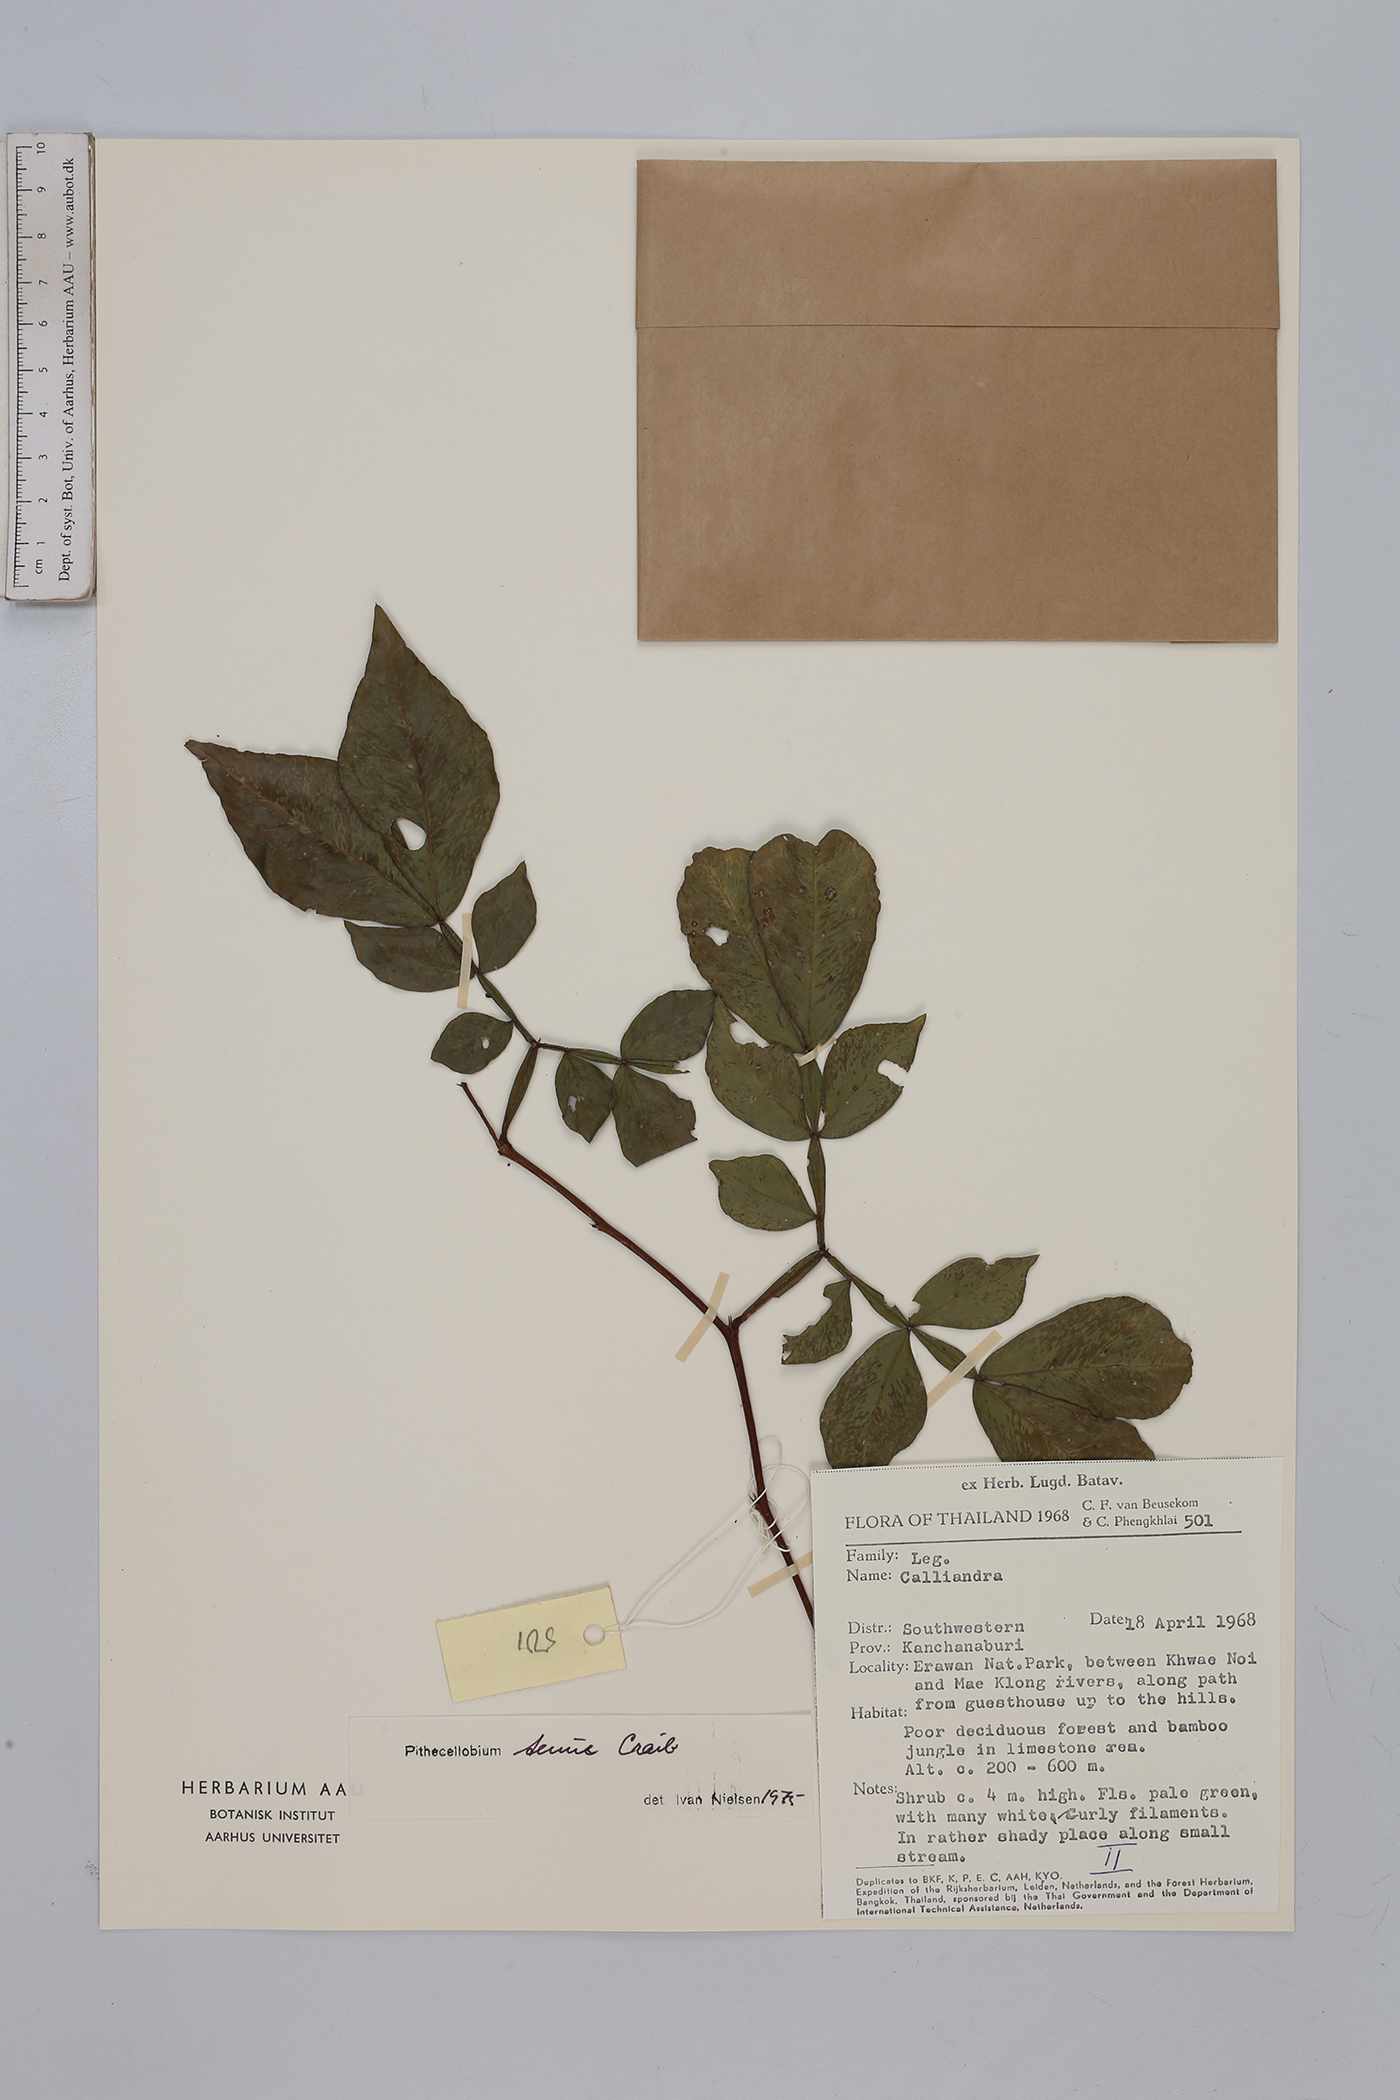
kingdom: Plantae
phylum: Tracheophyta
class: Magnoliopsida
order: Fabales
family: Fabaceae
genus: Thailentadopsis
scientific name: Thailentadopsis tenuis
